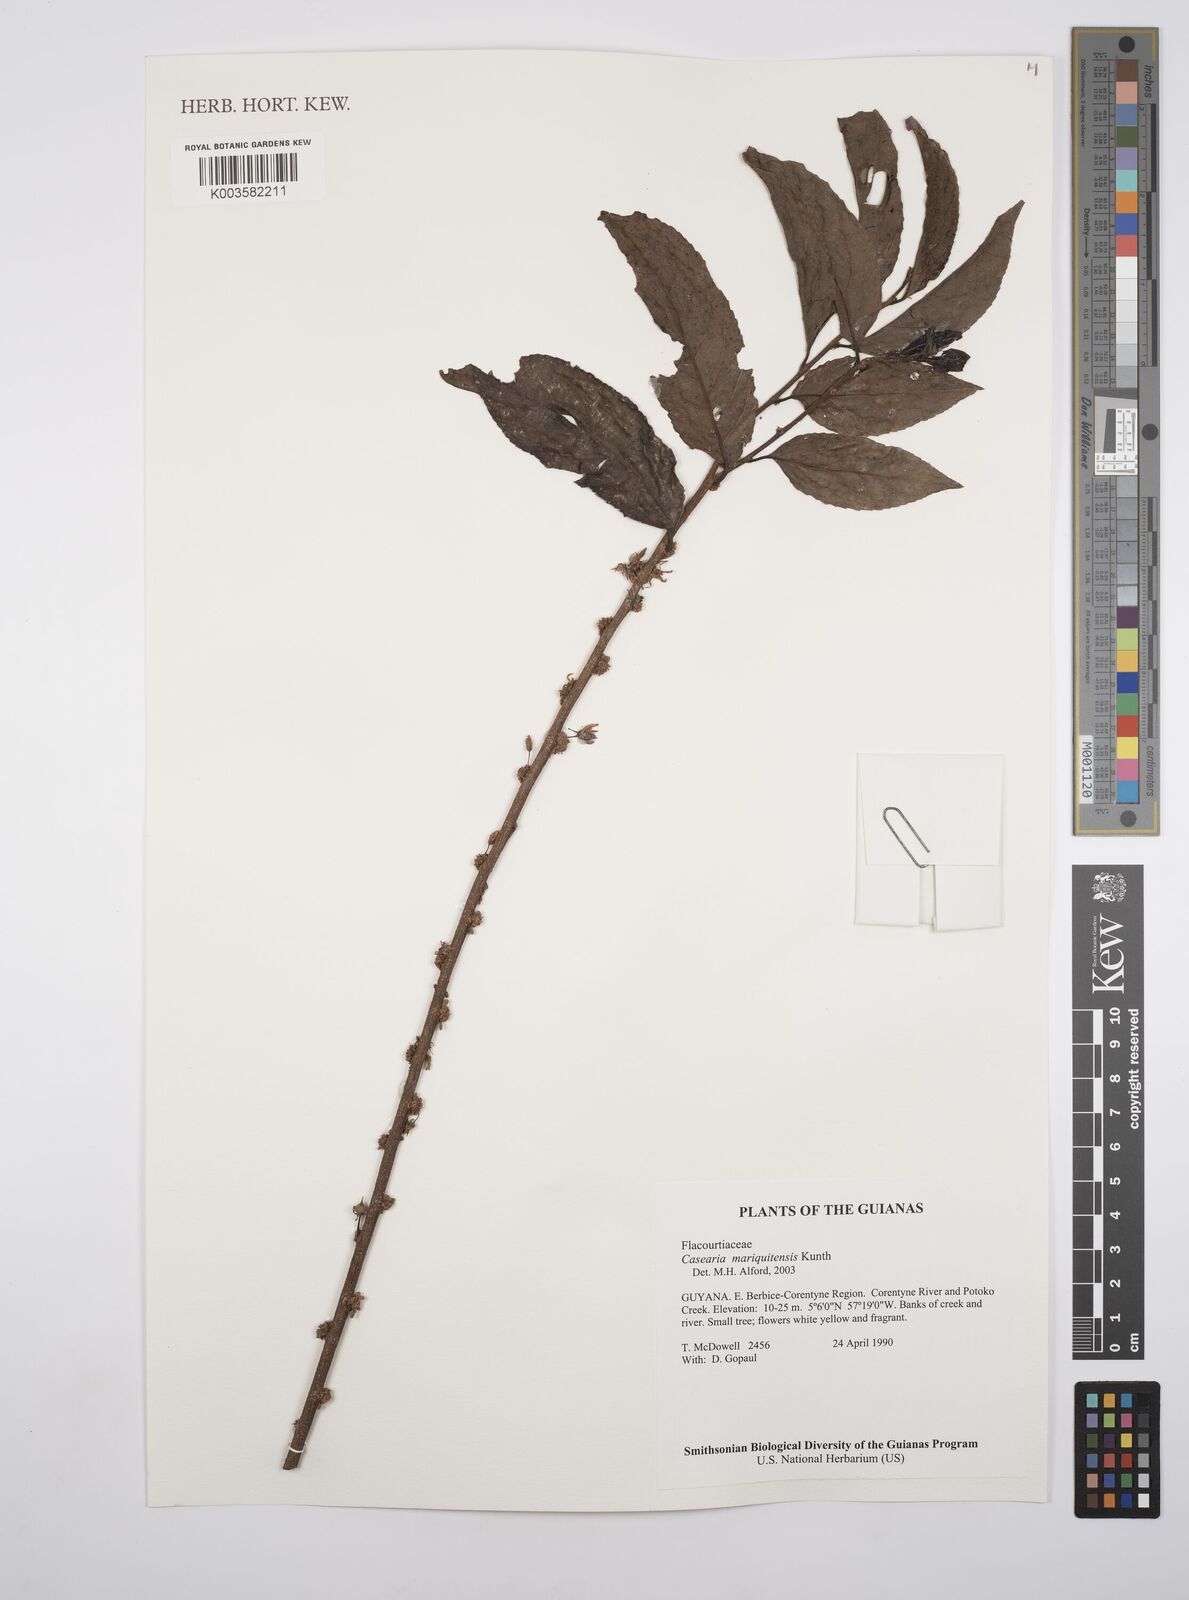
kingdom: Plantae
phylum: Tracheophyta
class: Magnoliopsida
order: Malpighiales
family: Salicaceae
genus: Casearia
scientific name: Casearia mariquitensis
